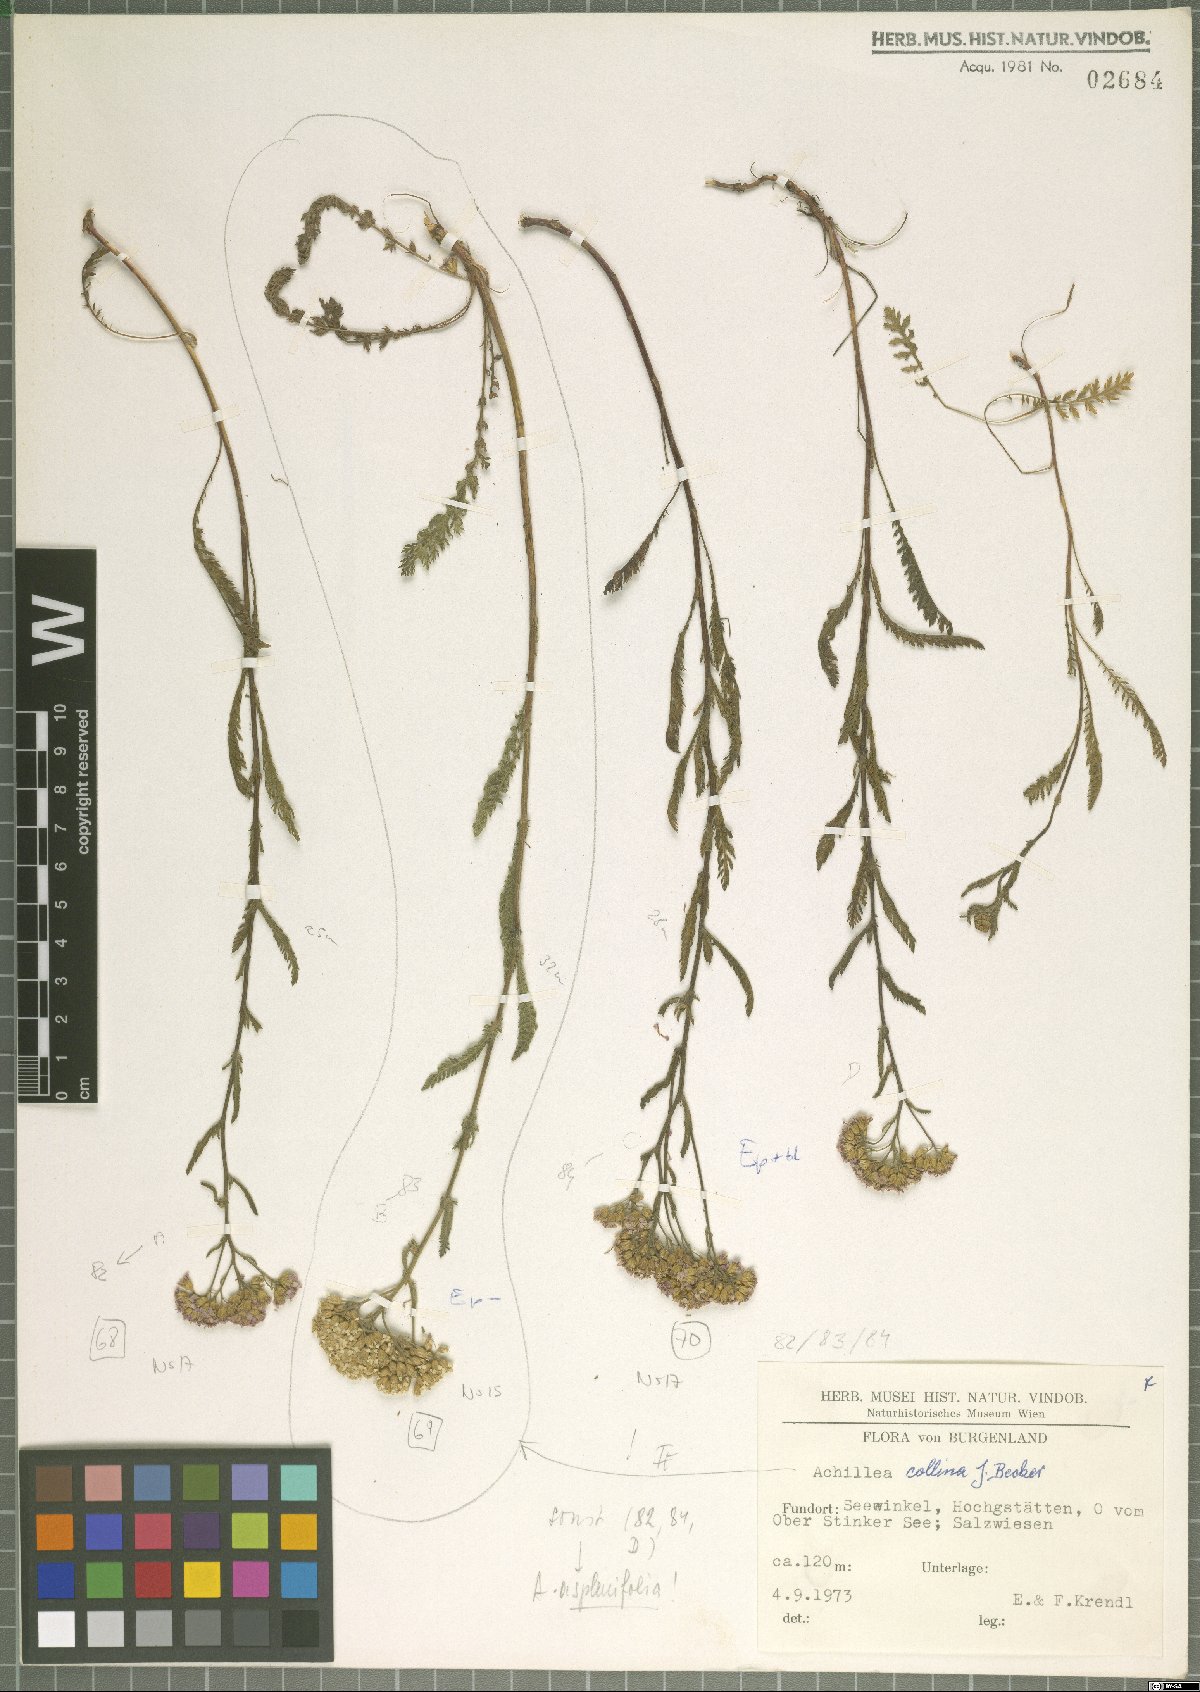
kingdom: Plantae
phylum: Tracheophyta
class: Magnoliopsida
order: Asterales
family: Asteraceae
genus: Achillea
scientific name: Achillea collina
